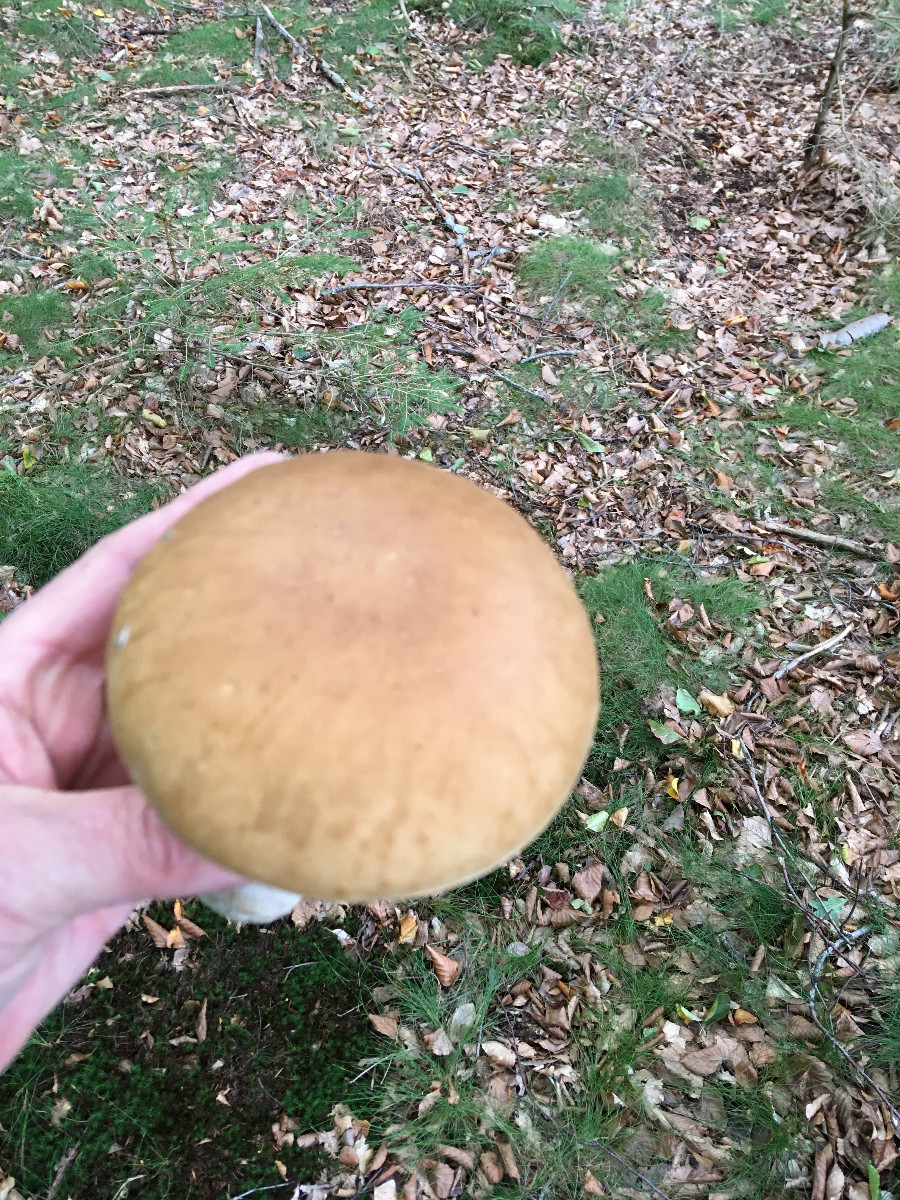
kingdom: Fungi
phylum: Basidiomycota
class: Agaricomycetes
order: Boletales
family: Boletaceae
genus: Boletus
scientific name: Boletus edulis
